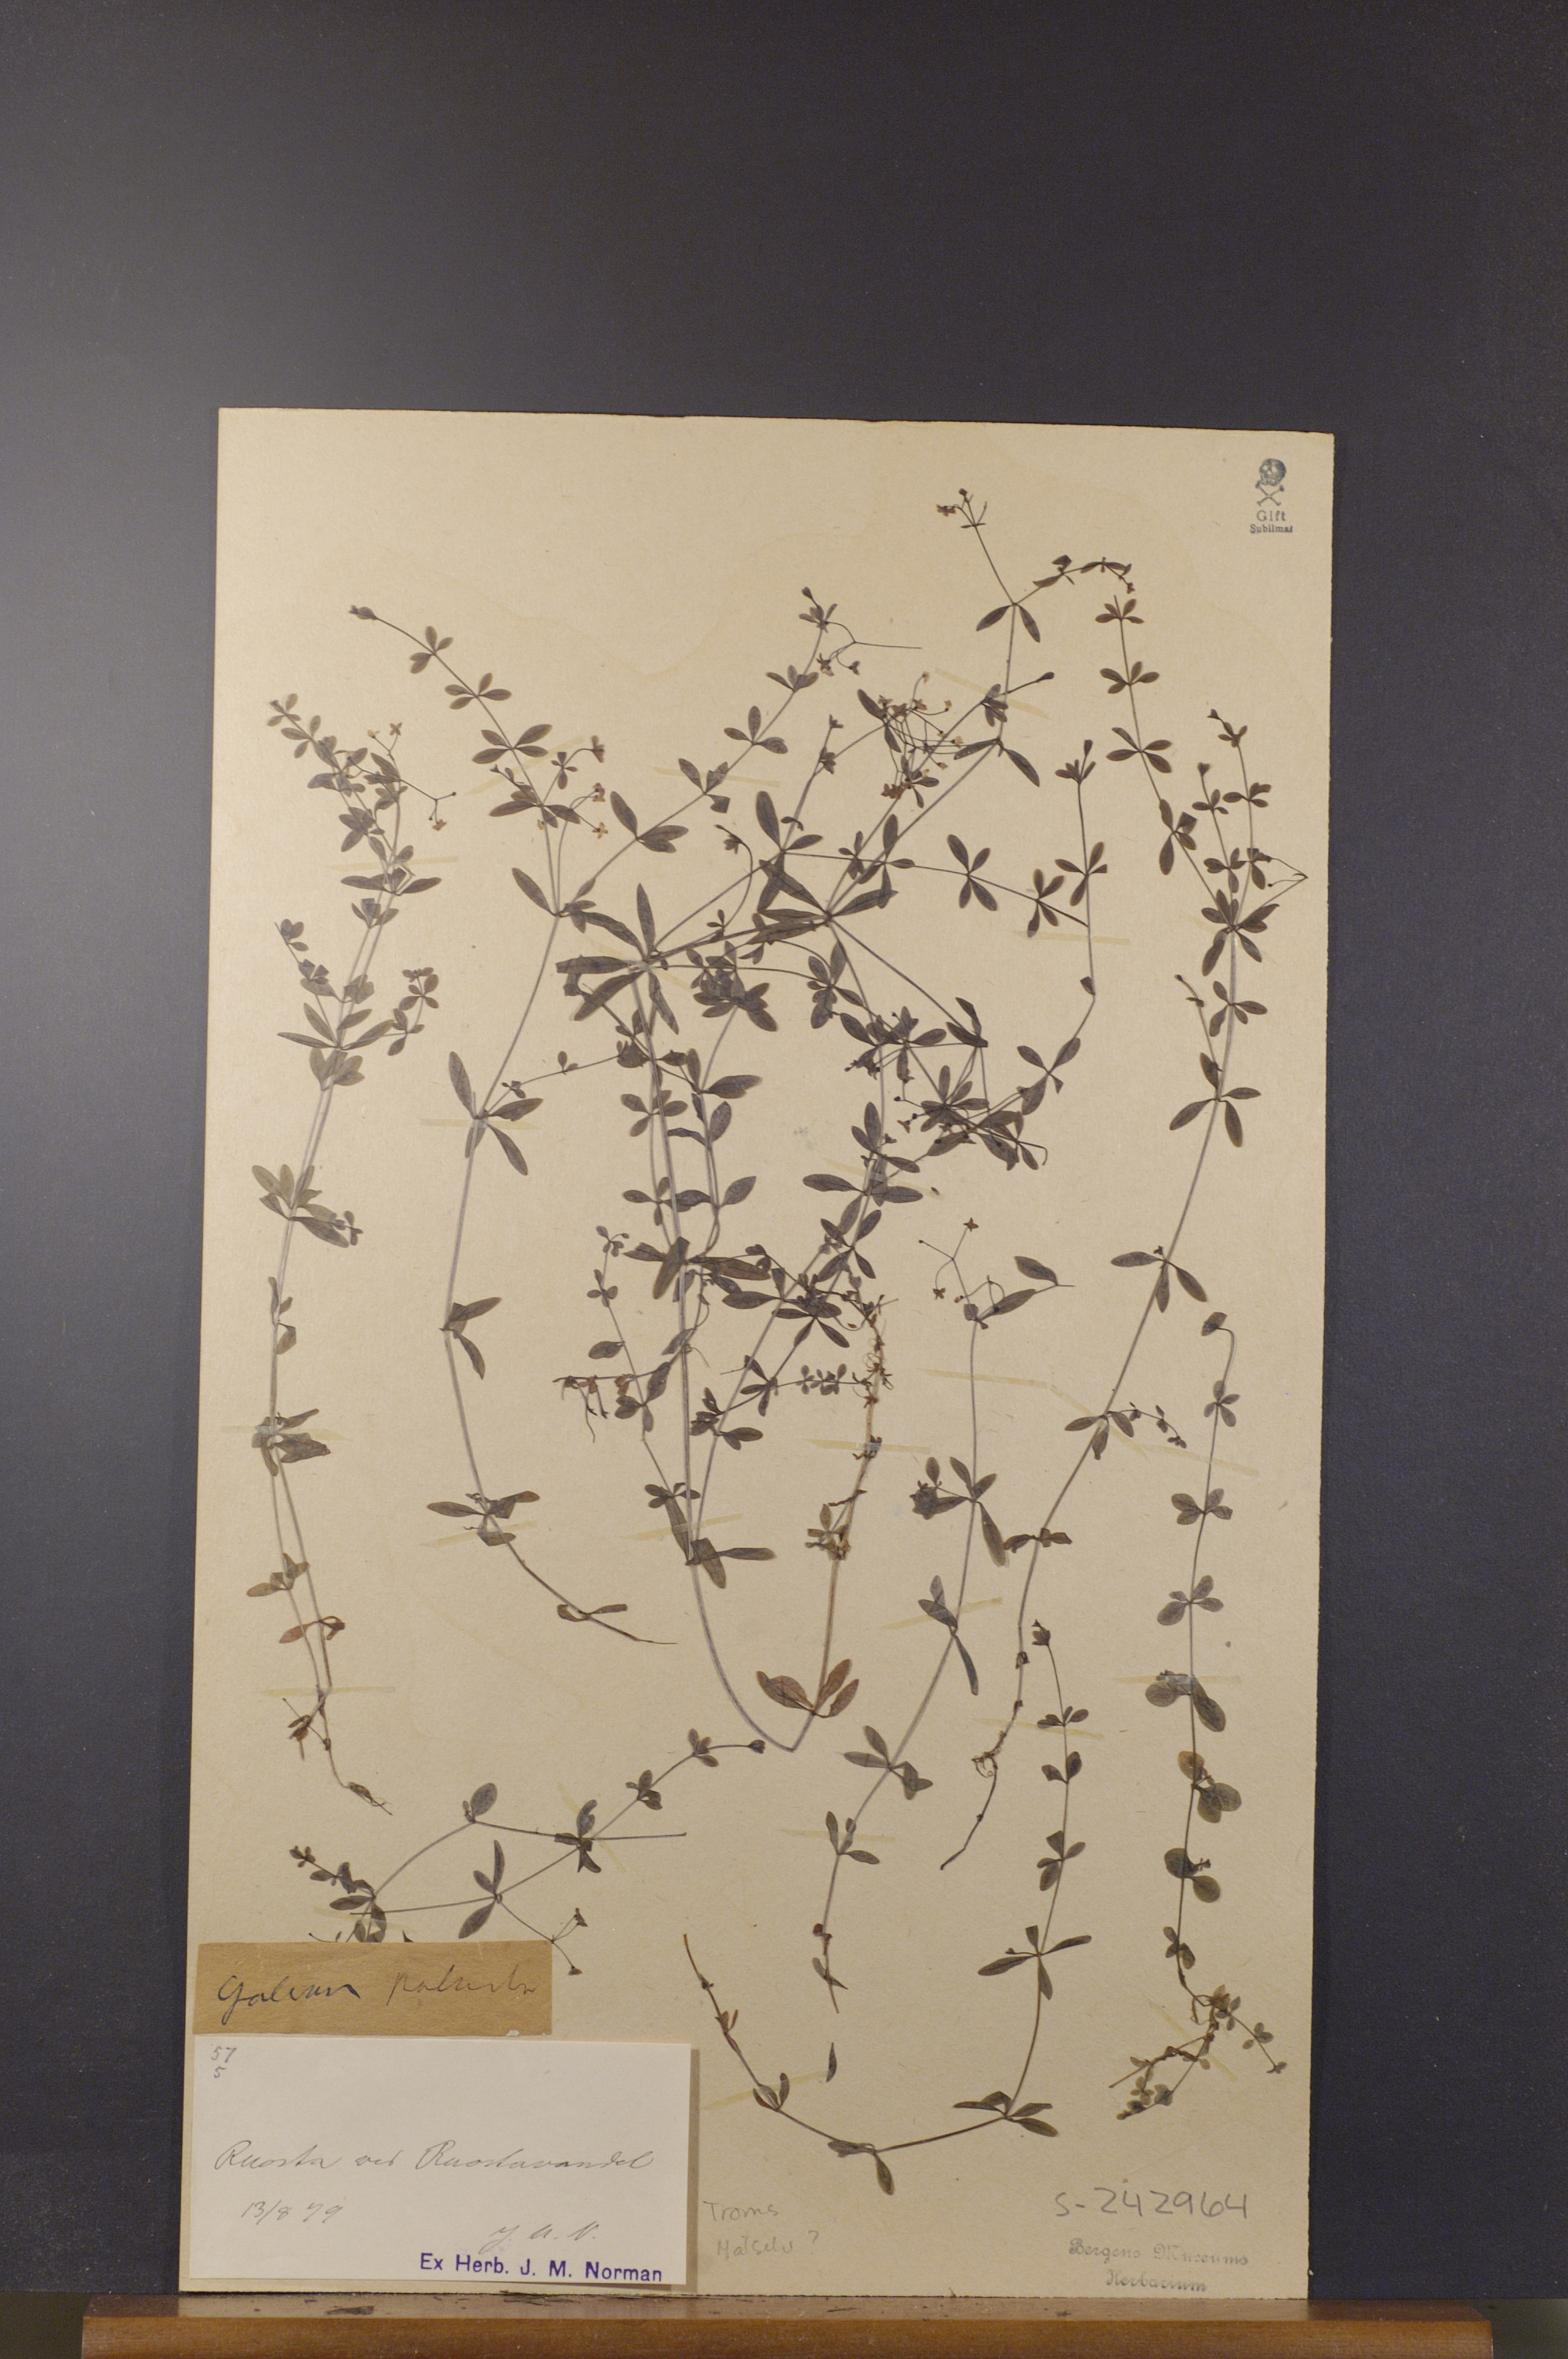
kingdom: Plantae
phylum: Tracheophyta
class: Magnoliopsida
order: Gentianales
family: Rubiaceae
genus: Galium
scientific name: Galium palustre
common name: Common marsh-bedstraw
